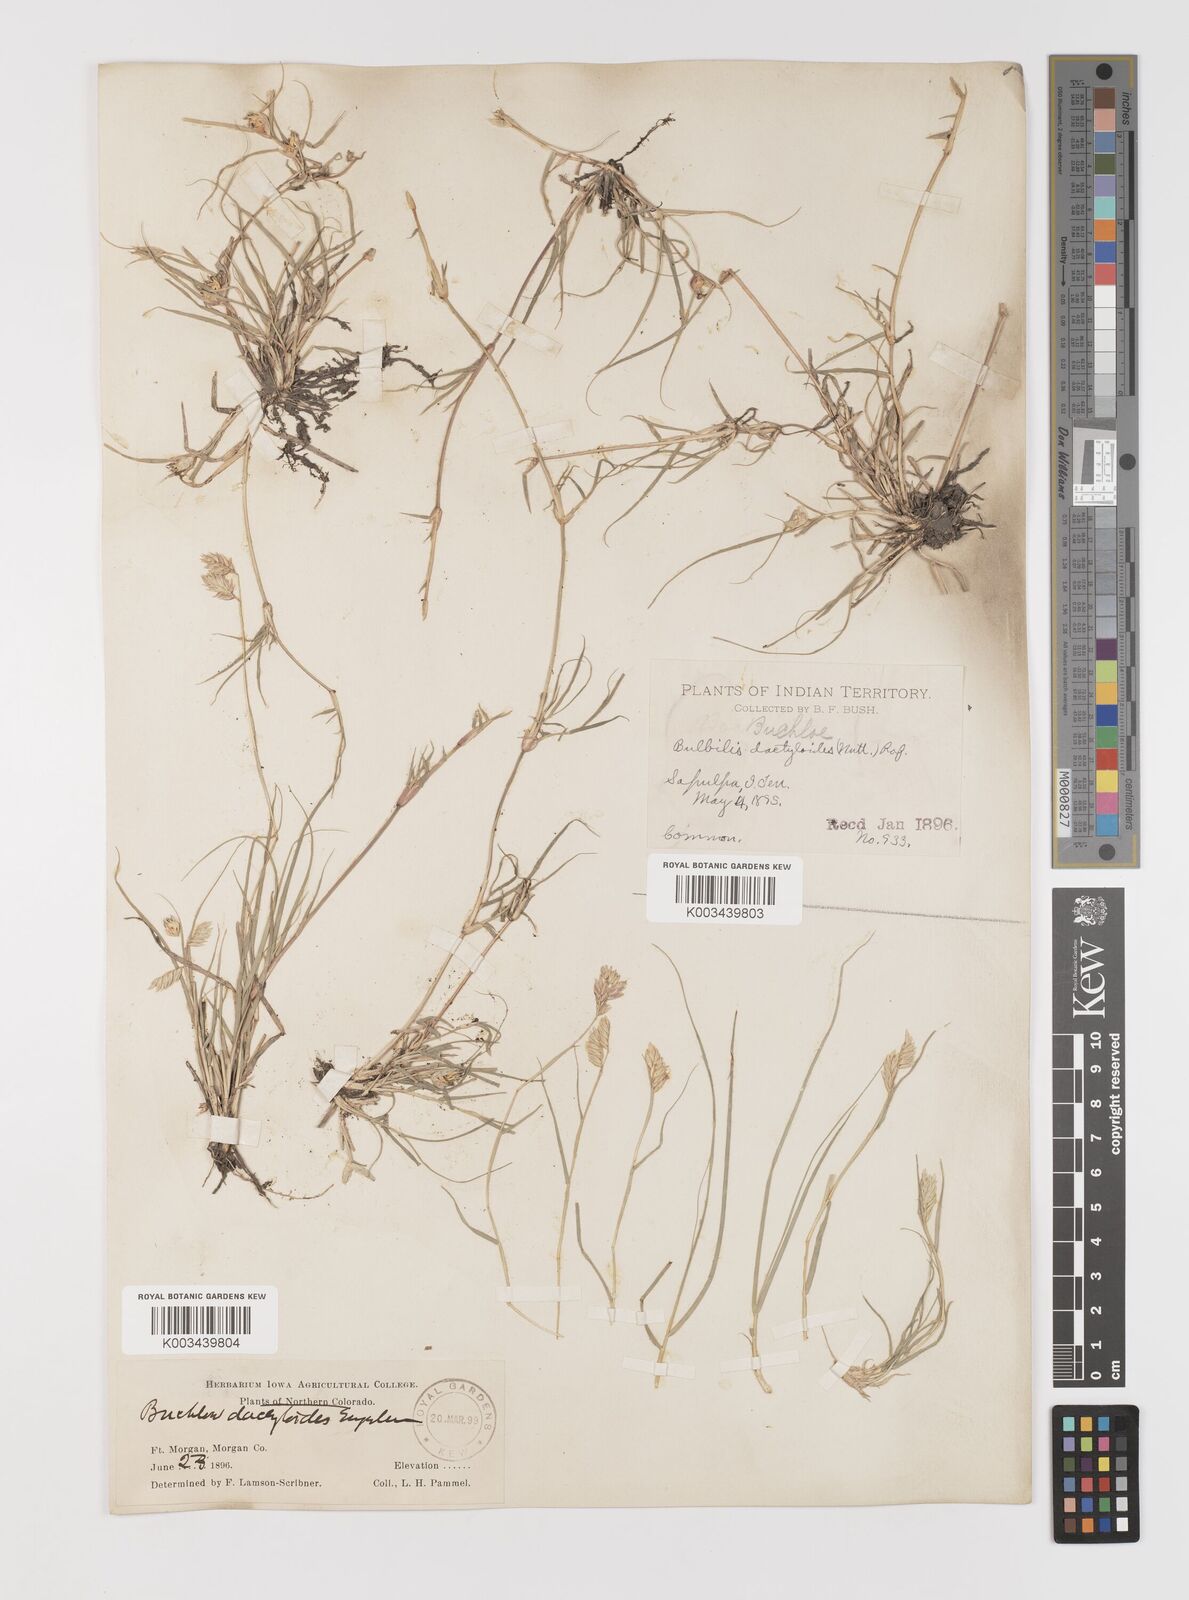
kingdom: Plantae
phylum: Tracheophyta
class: Liliopsida
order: Poales
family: Poaceae
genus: Bouteloua
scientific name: Bouteloua dactyloides
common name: Buffalo grass
